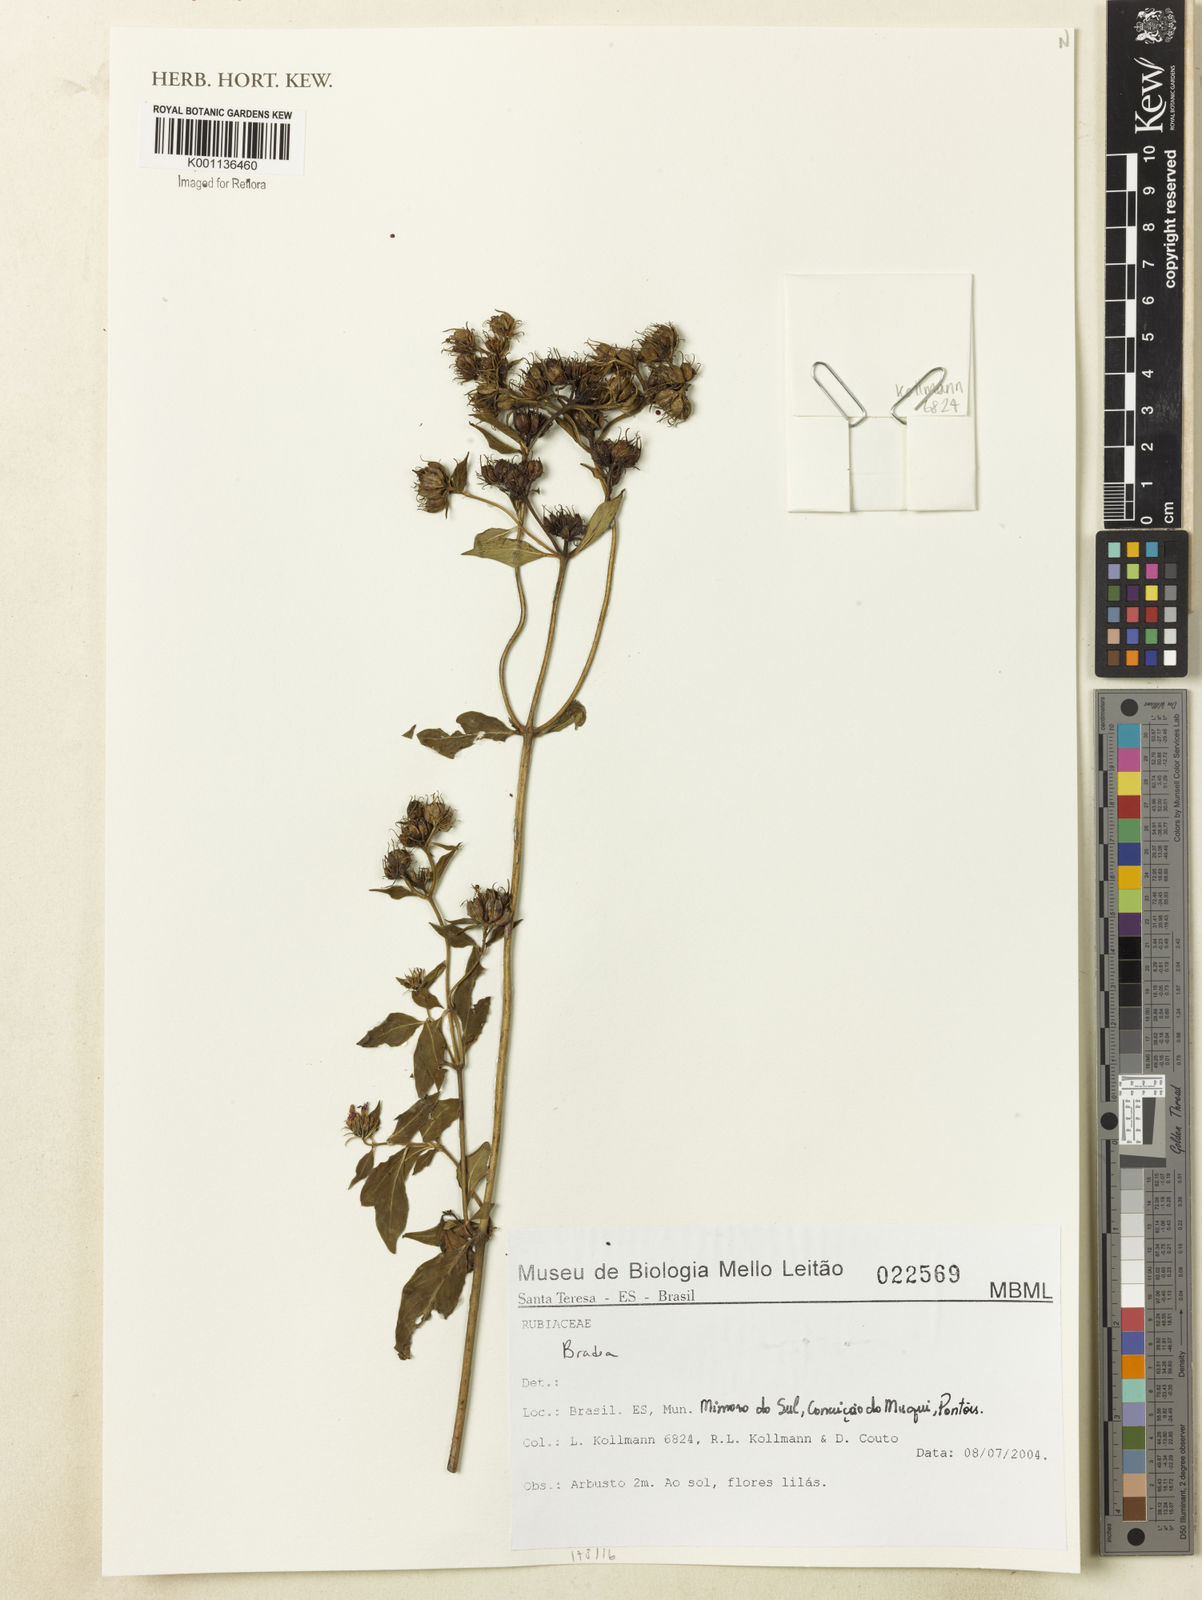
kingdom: Plantae
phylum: Tracheophyta
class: Magnoliopsida
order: Gentianales
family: Rubiaceae
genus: Bradea
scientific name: Bradea
